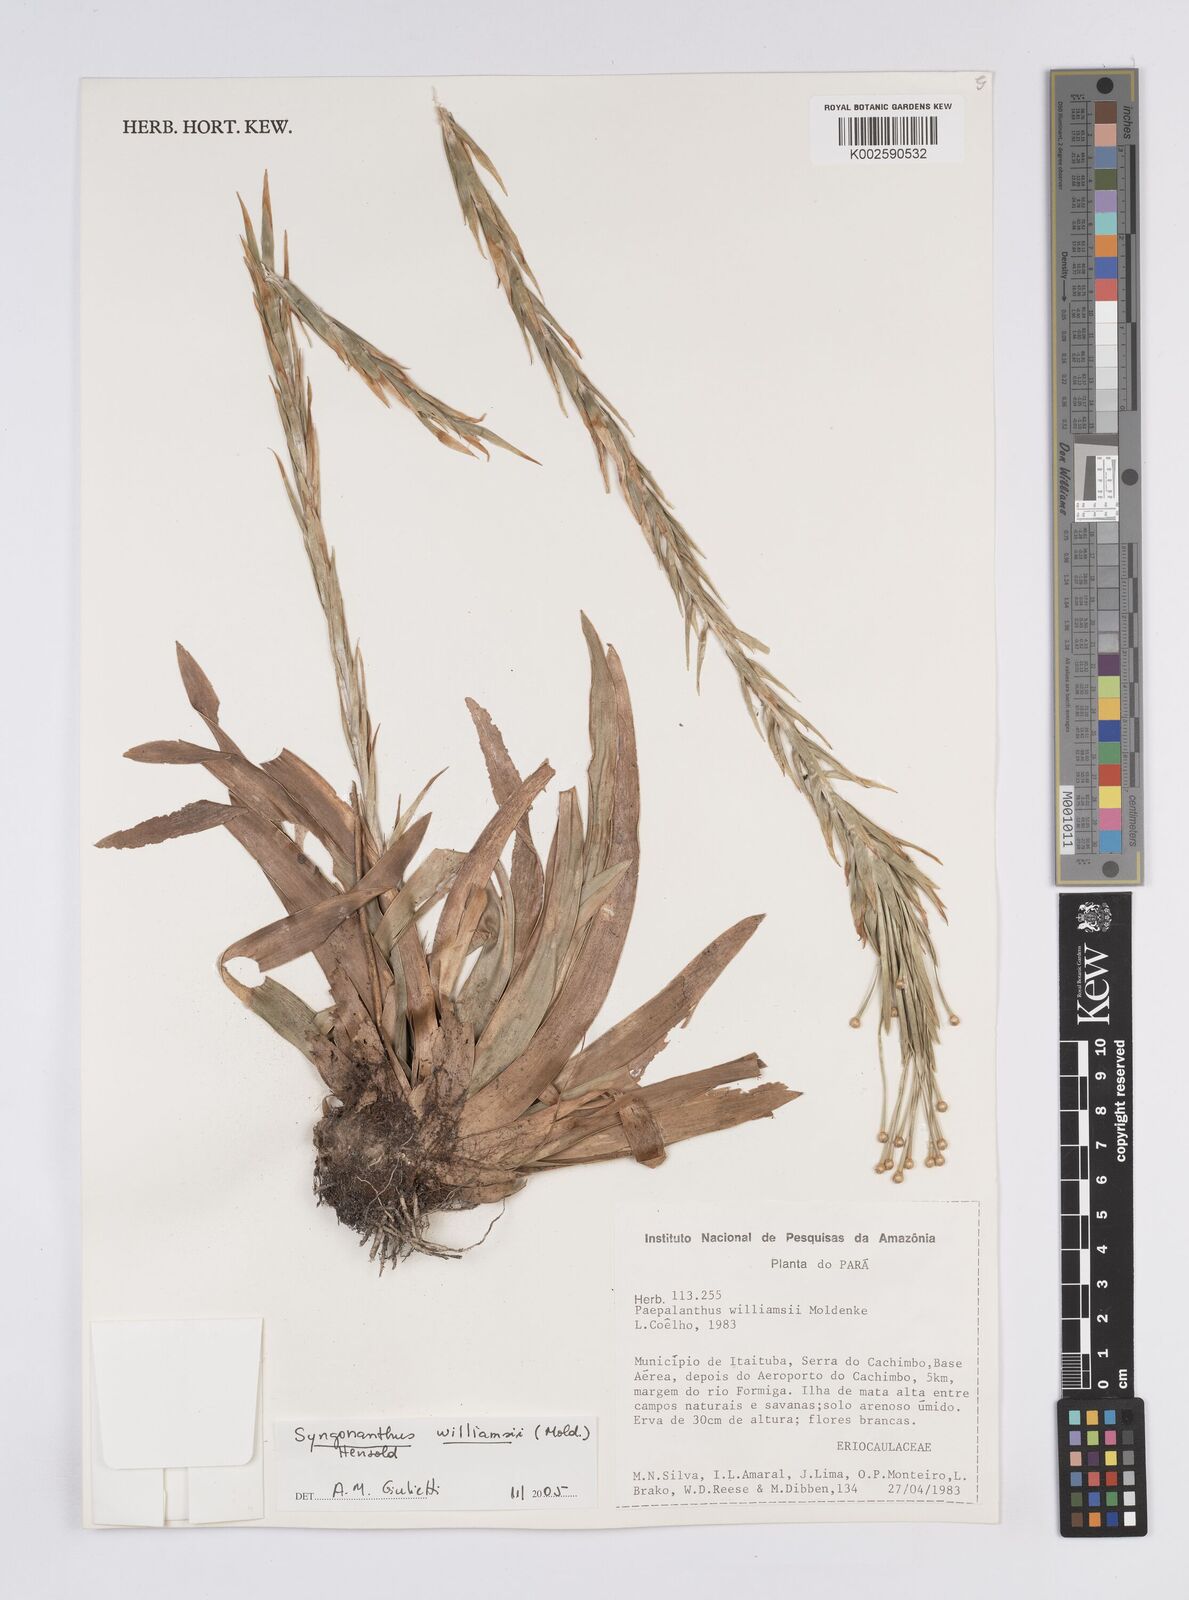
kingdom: Plantae
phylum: Tracheophyta
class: Liliopsida
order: Poales
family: Eriocaulaceae
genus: Syngonanthus
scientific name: Syngonanthus williamsii
